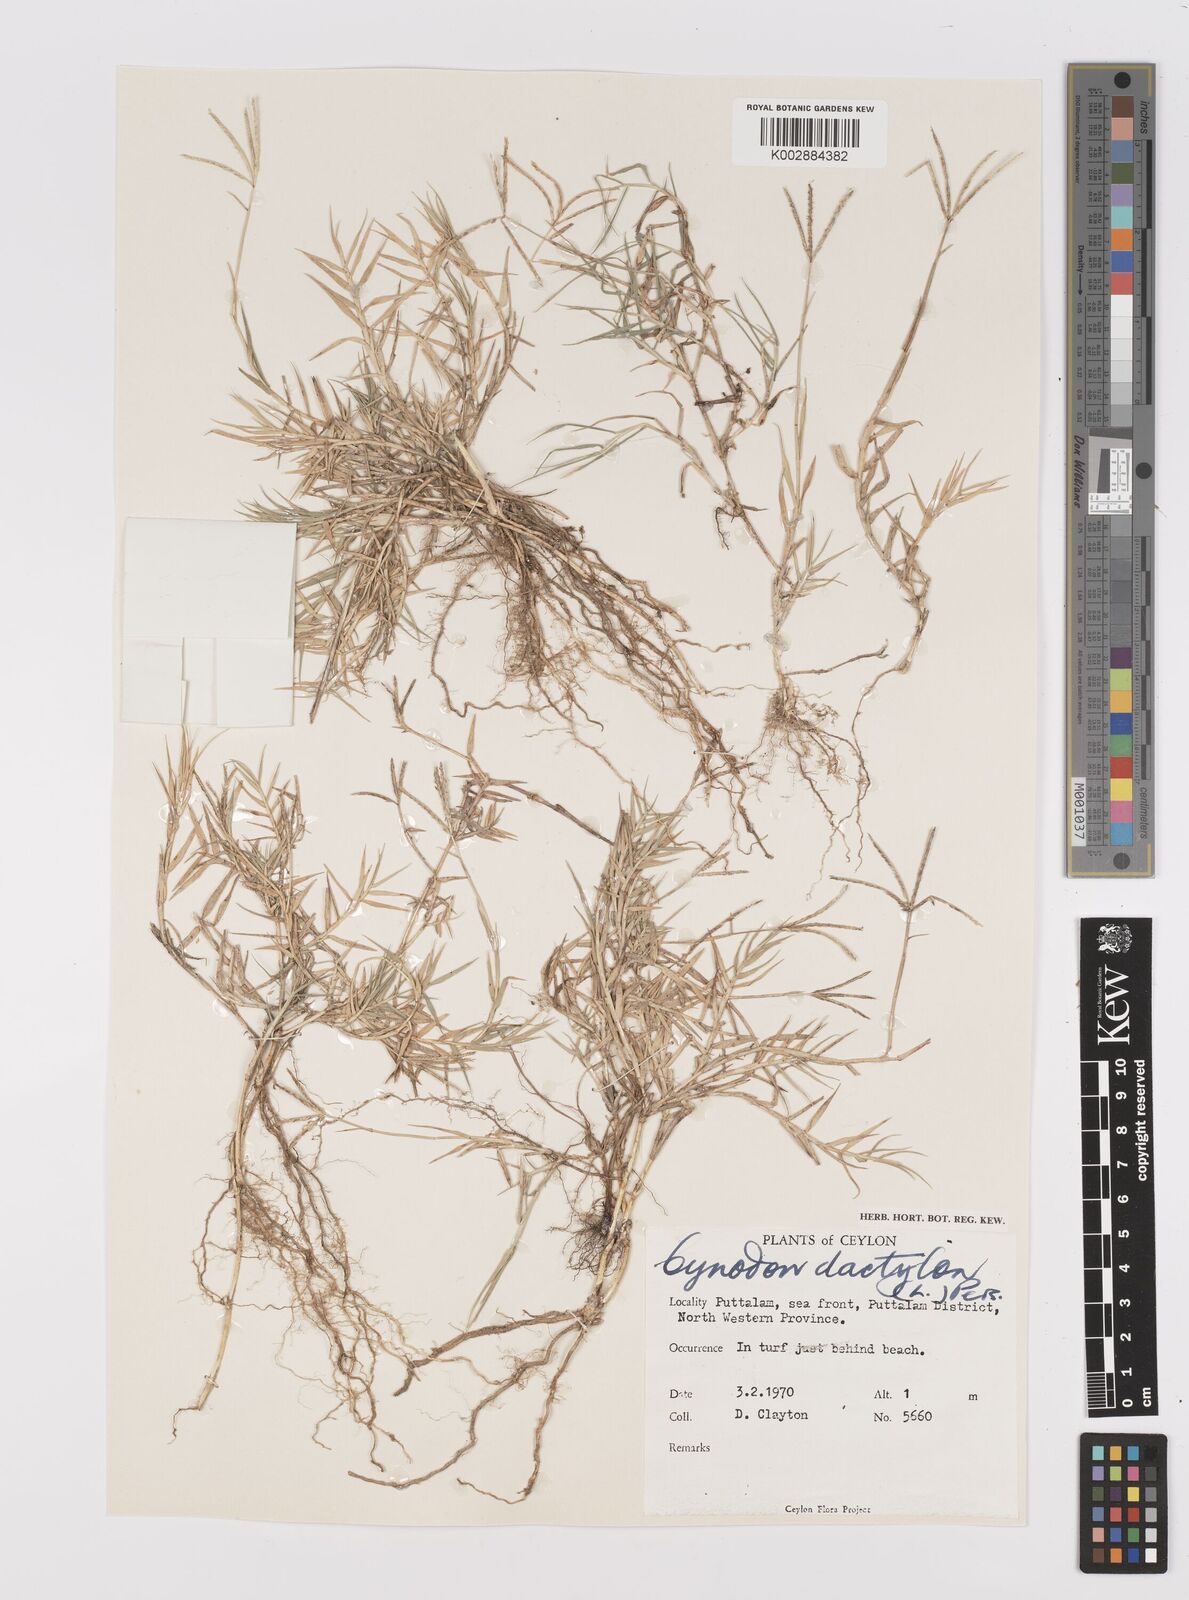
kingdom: Plantae
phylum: Tracheophyta
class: Liliopsida
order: Poales
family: Poaceae
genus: Cynodon
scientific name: Cynodon dactylon
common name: Bermuda grass
